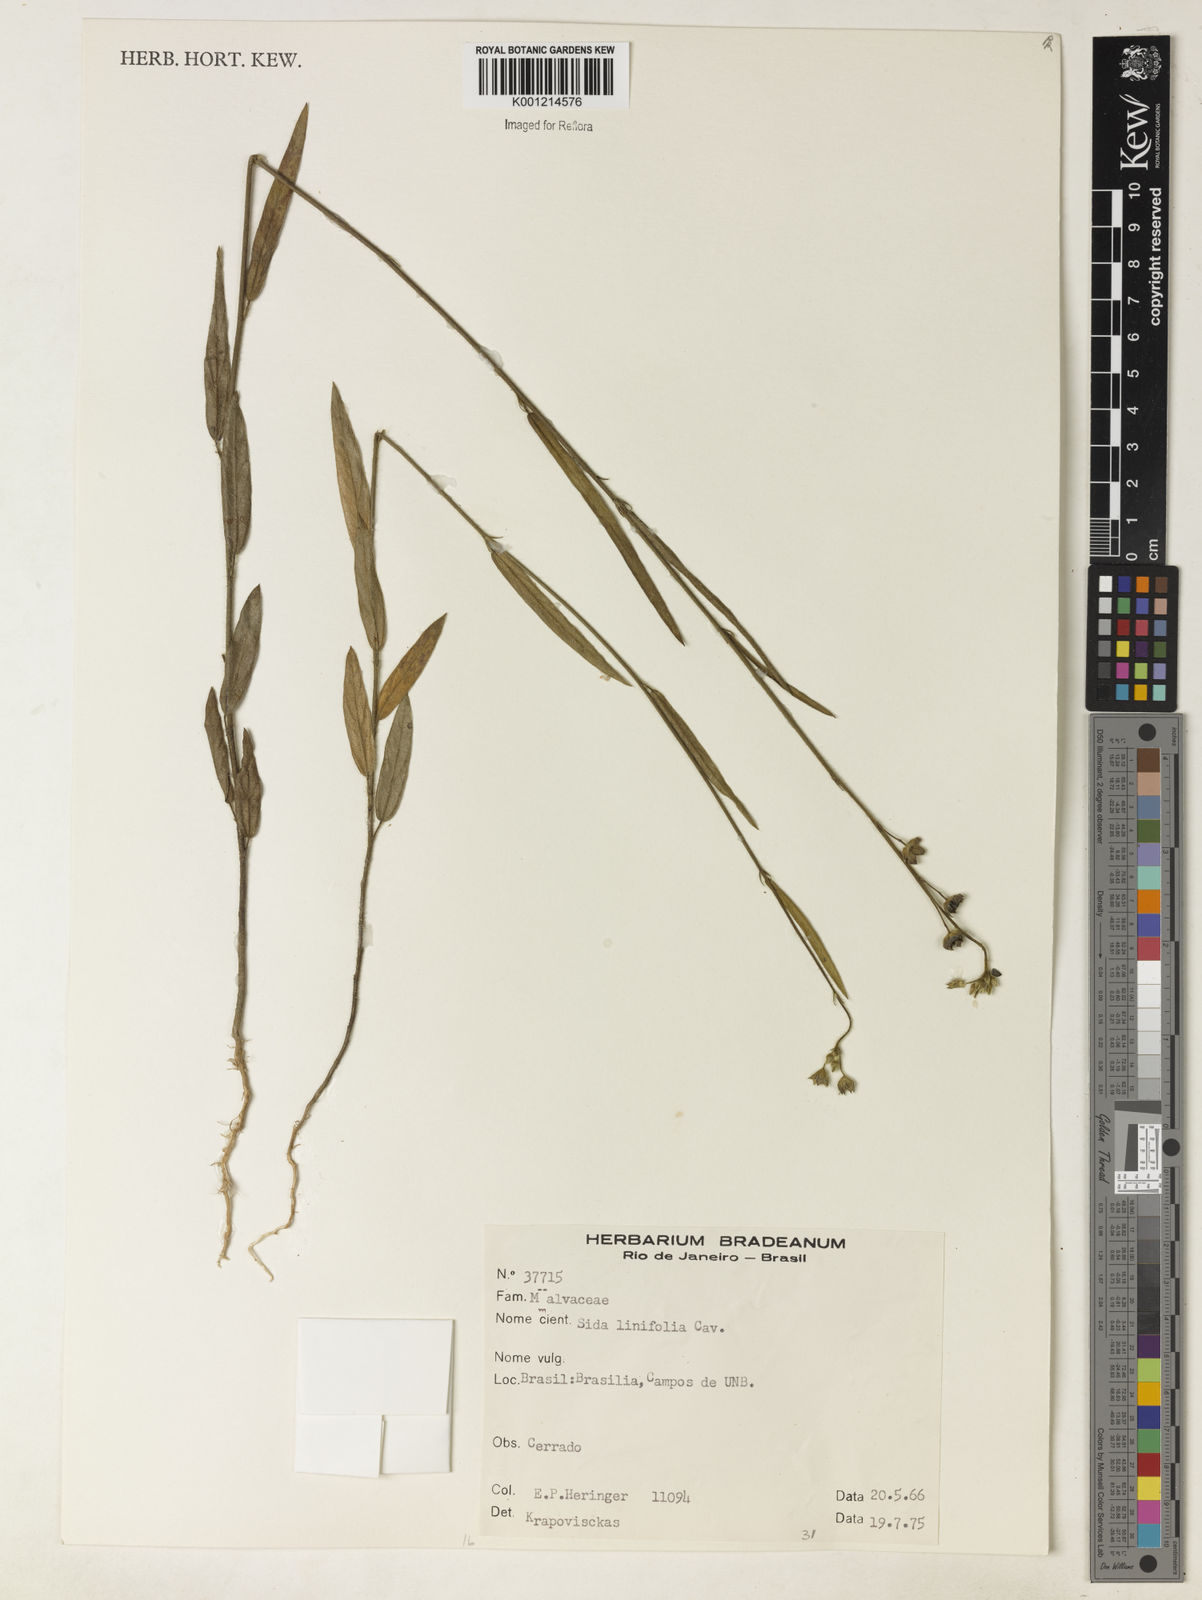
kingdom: Plantae
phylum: Tracheophyta
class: Magnoliopsida
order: Malvales
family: Malvaceae
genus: Sida
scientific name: Sida linifolia
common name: Flaxleaf fanpetals
